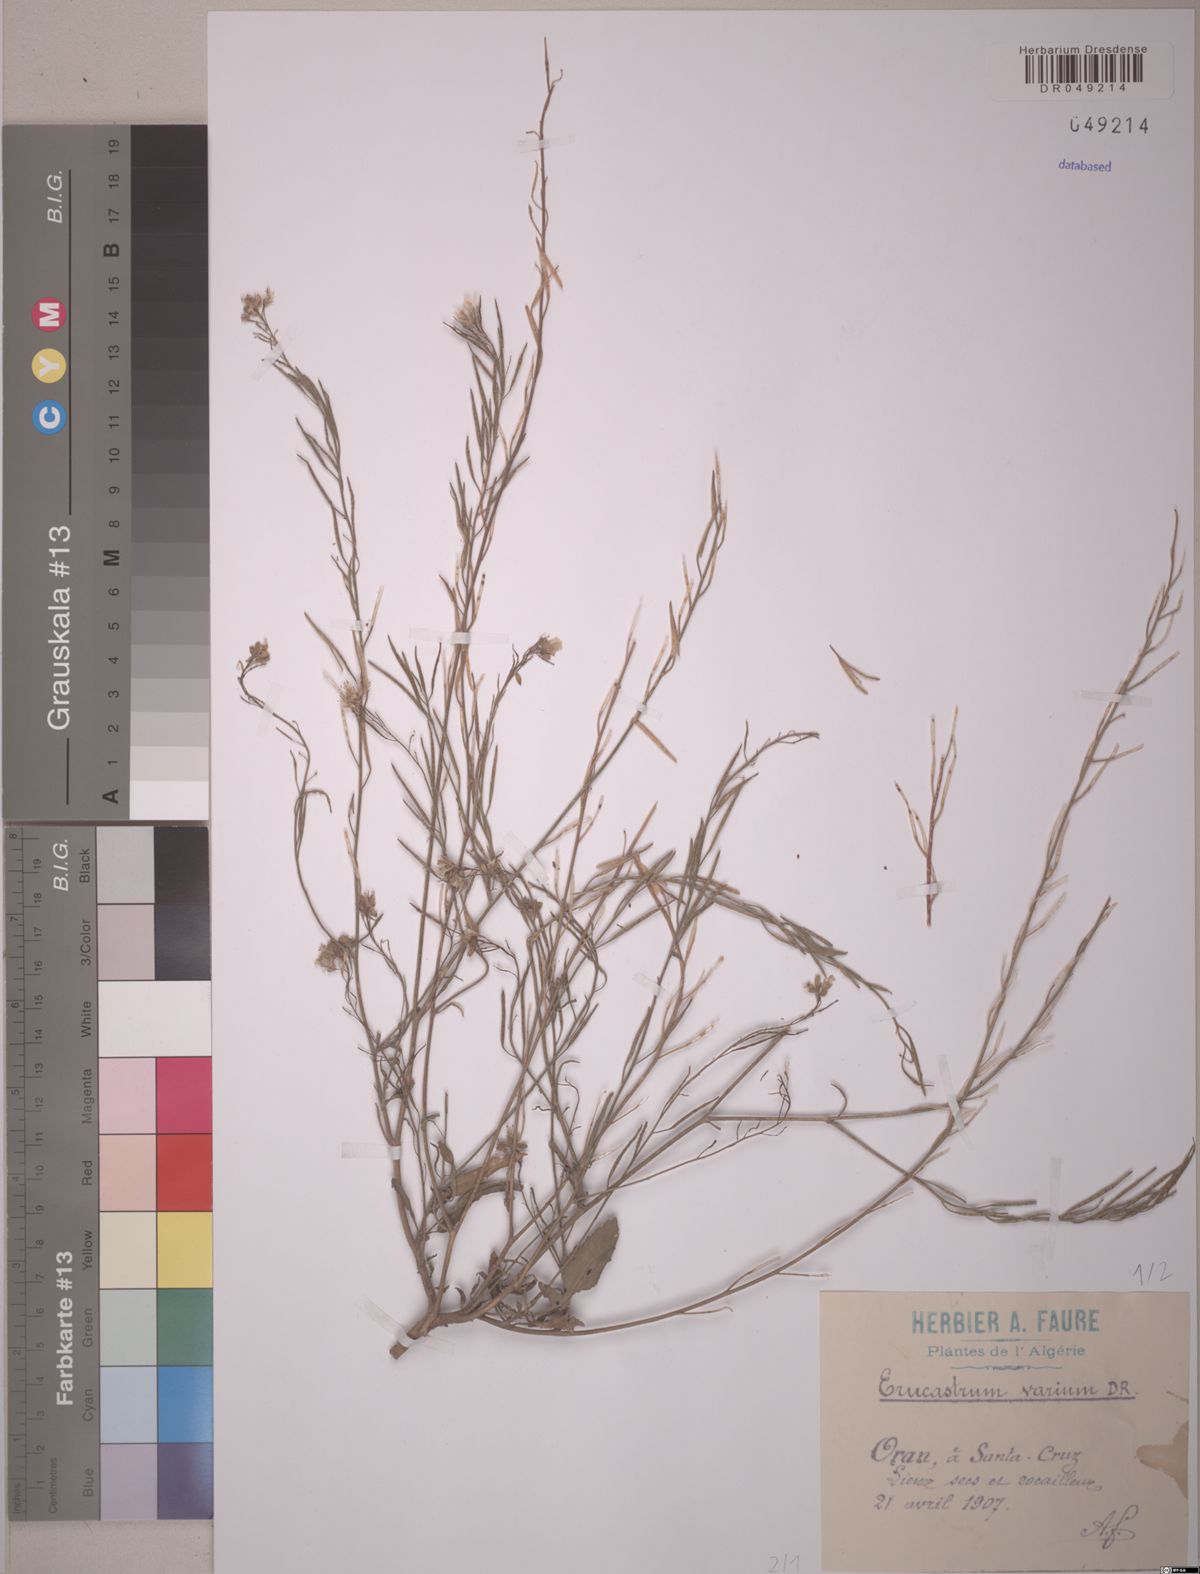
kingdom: Plantae
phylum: Tracheophyta
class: Magnoliopsida
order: Brassicales
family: Brassicaceae
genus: Erucastrum
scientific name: Erucastrum varium
